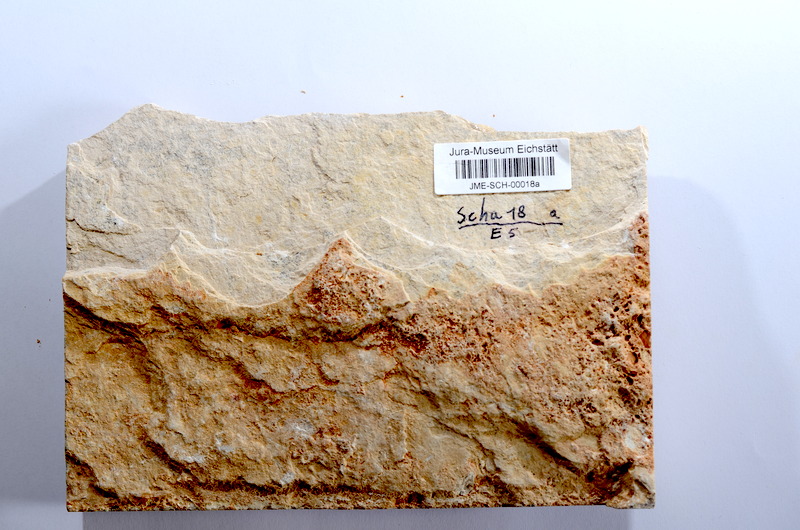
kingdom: Animalia
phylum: Chordata
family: Ascalaboidae
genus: Tharsis
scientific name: Tharsis dubius
